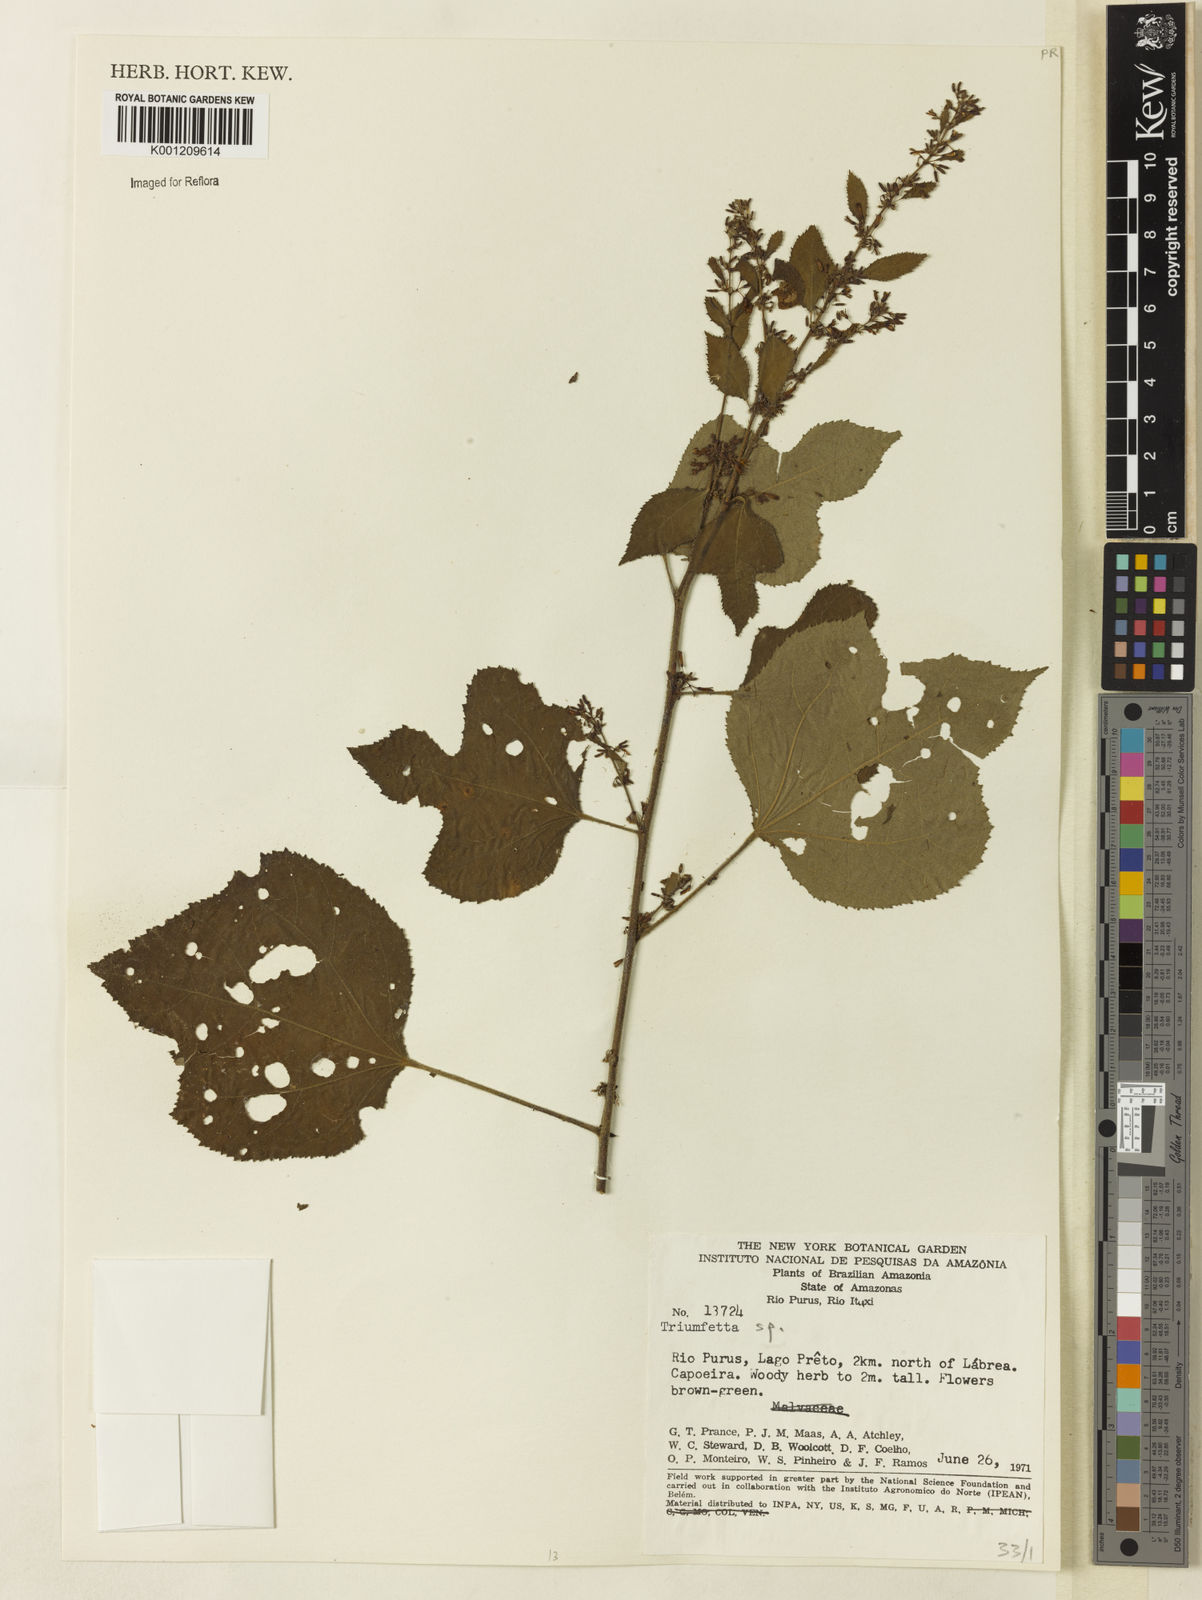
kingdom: Plantae
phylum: Tracheophyta
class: Magnoliopsida
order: Malvales
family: Malvaceae
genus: Triumfetta
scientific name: Triumfetta
